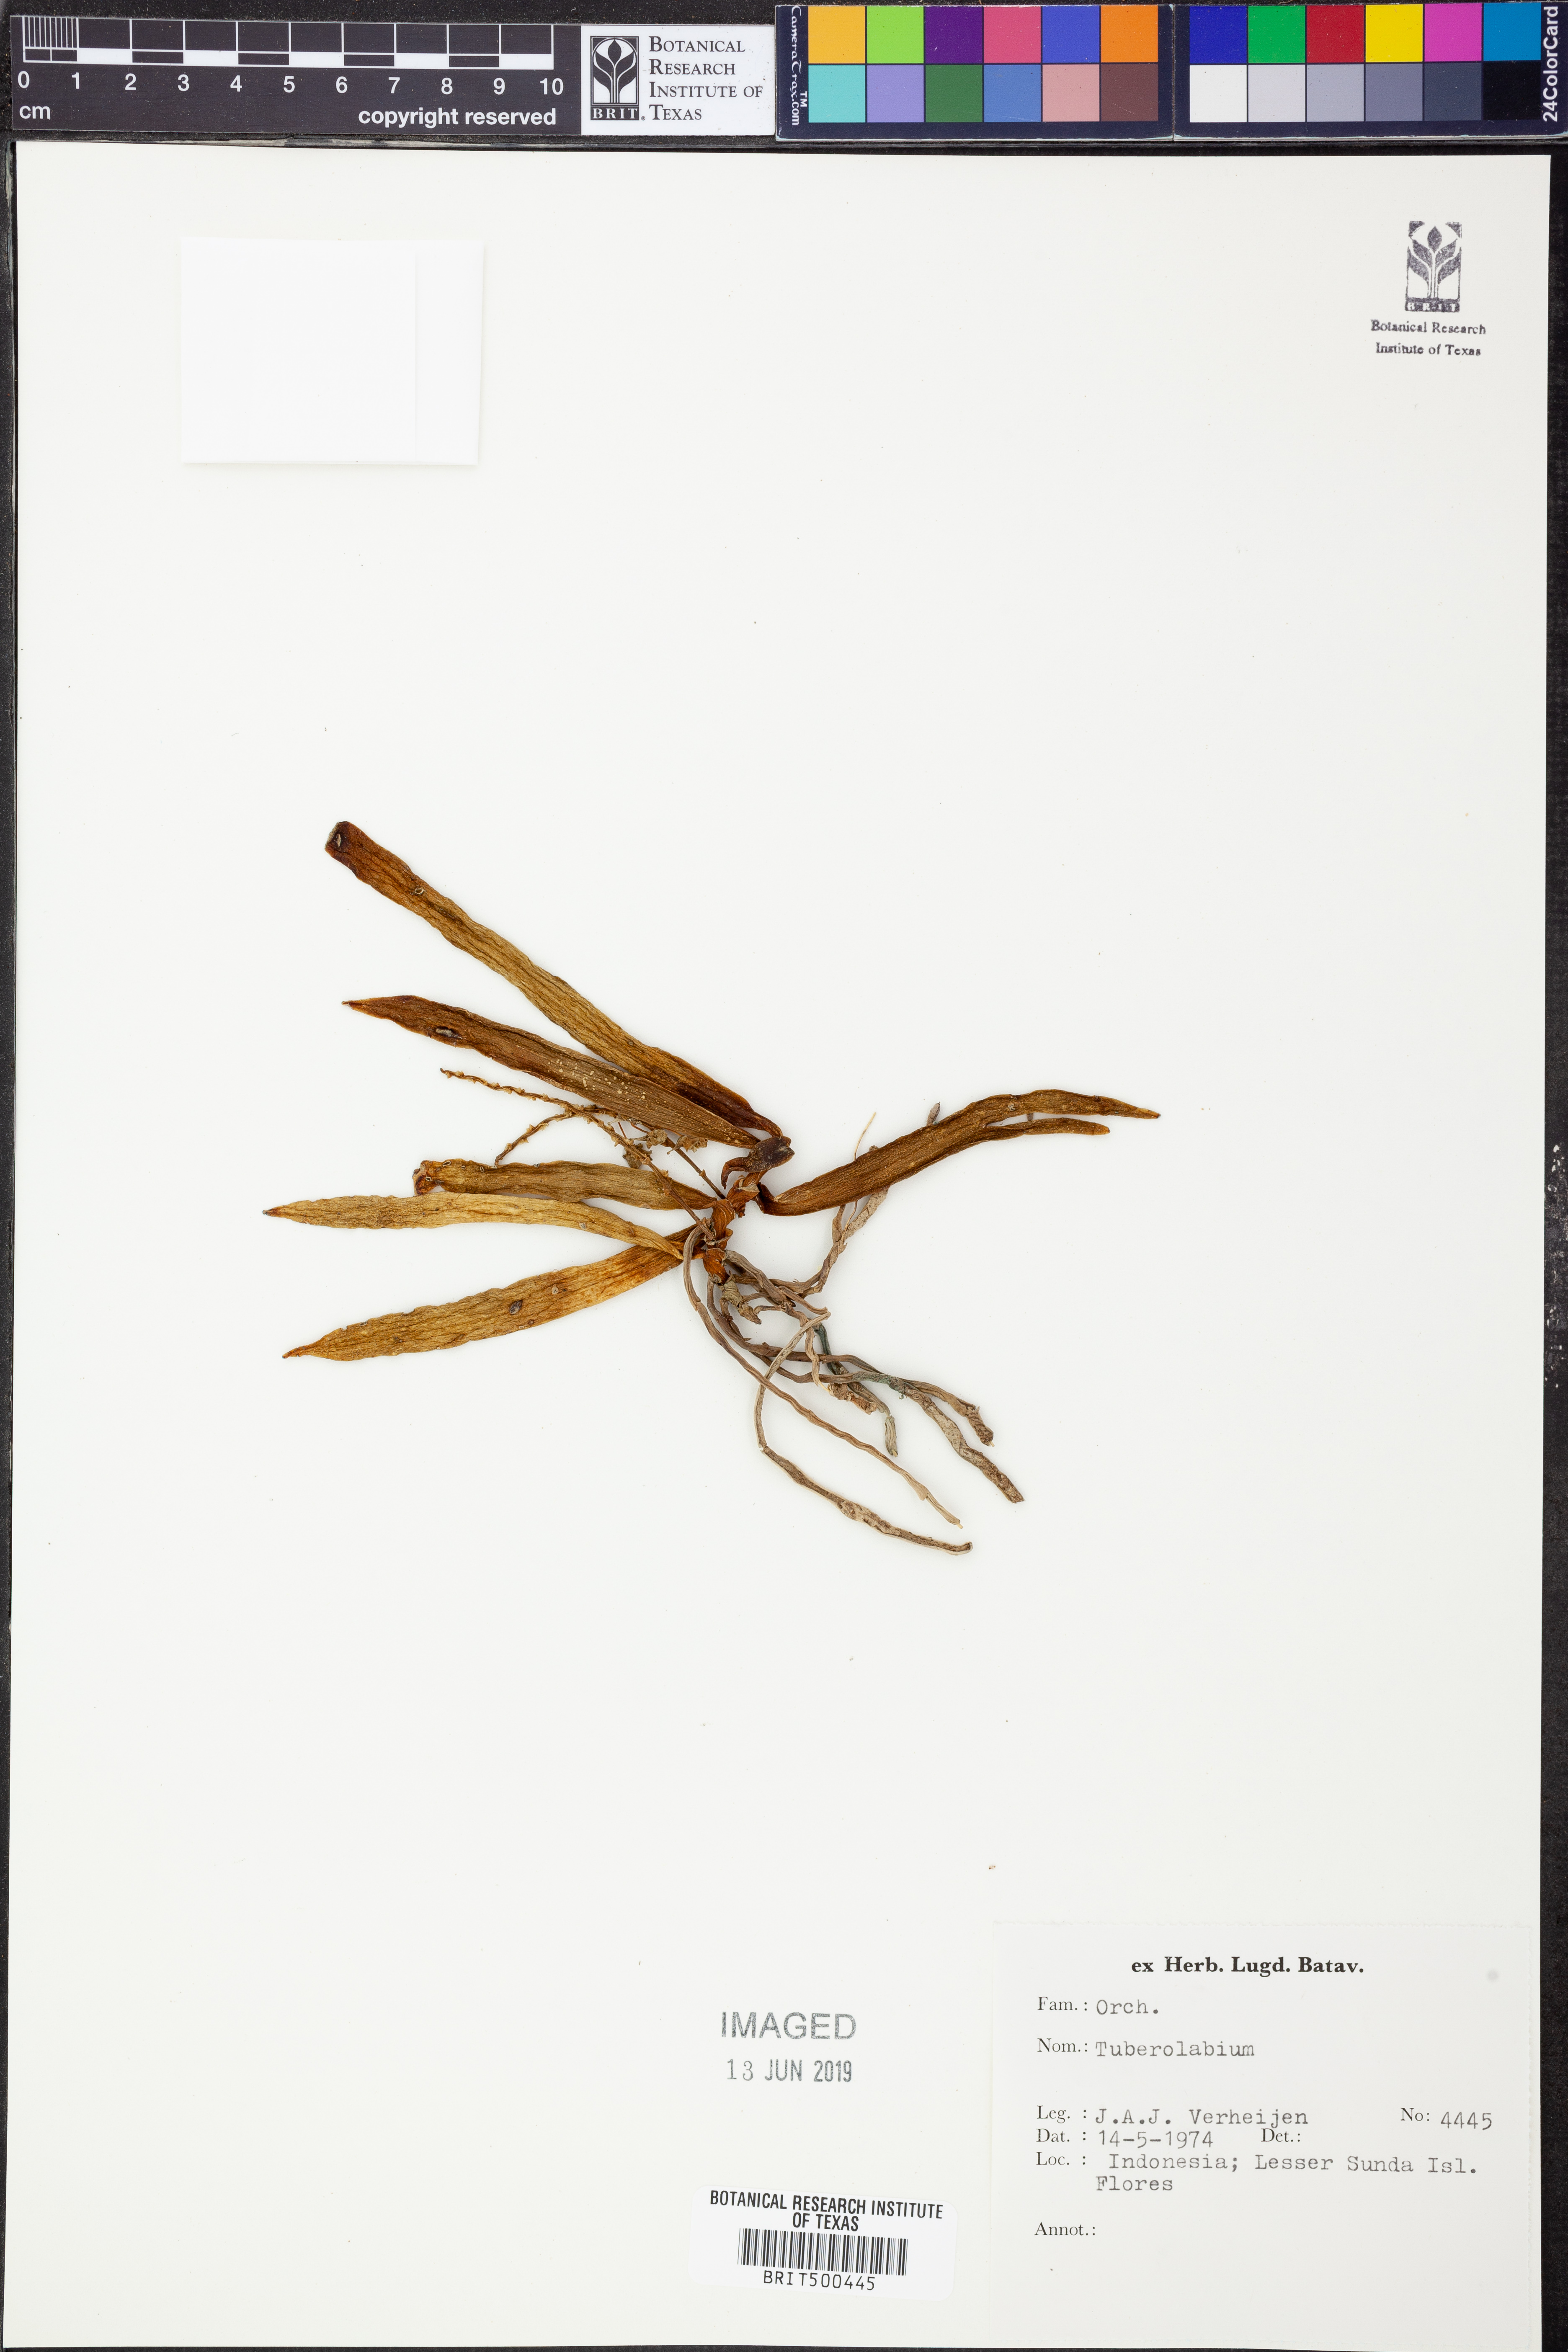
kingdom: Plantae
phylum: Tracheophyta
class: Liliopsida
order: Asparagales
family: Orchidaceae
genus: Tuberolabium
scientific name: Tuberolabium
